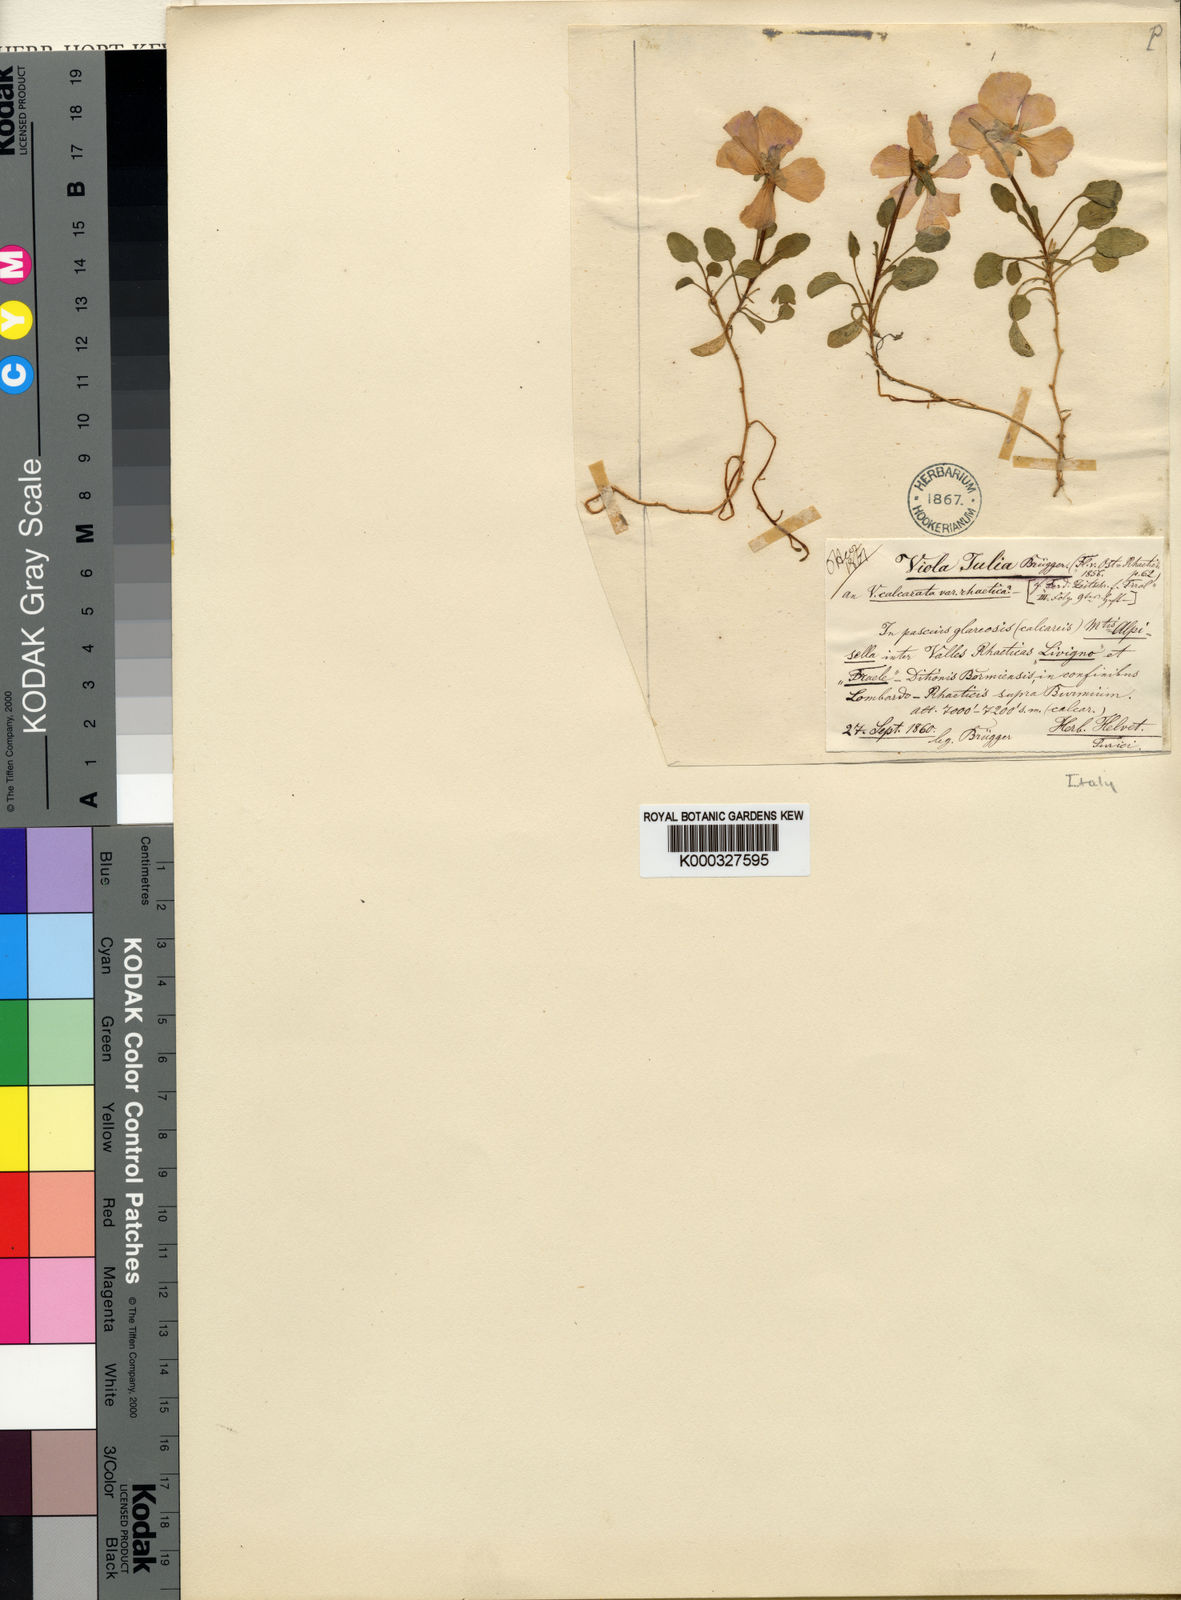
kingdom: Plantae
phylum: Tracheophyta
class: Magnoliopsida
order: Malpighiales
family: Violaceae
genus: Viola
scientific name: Viola calcarata
